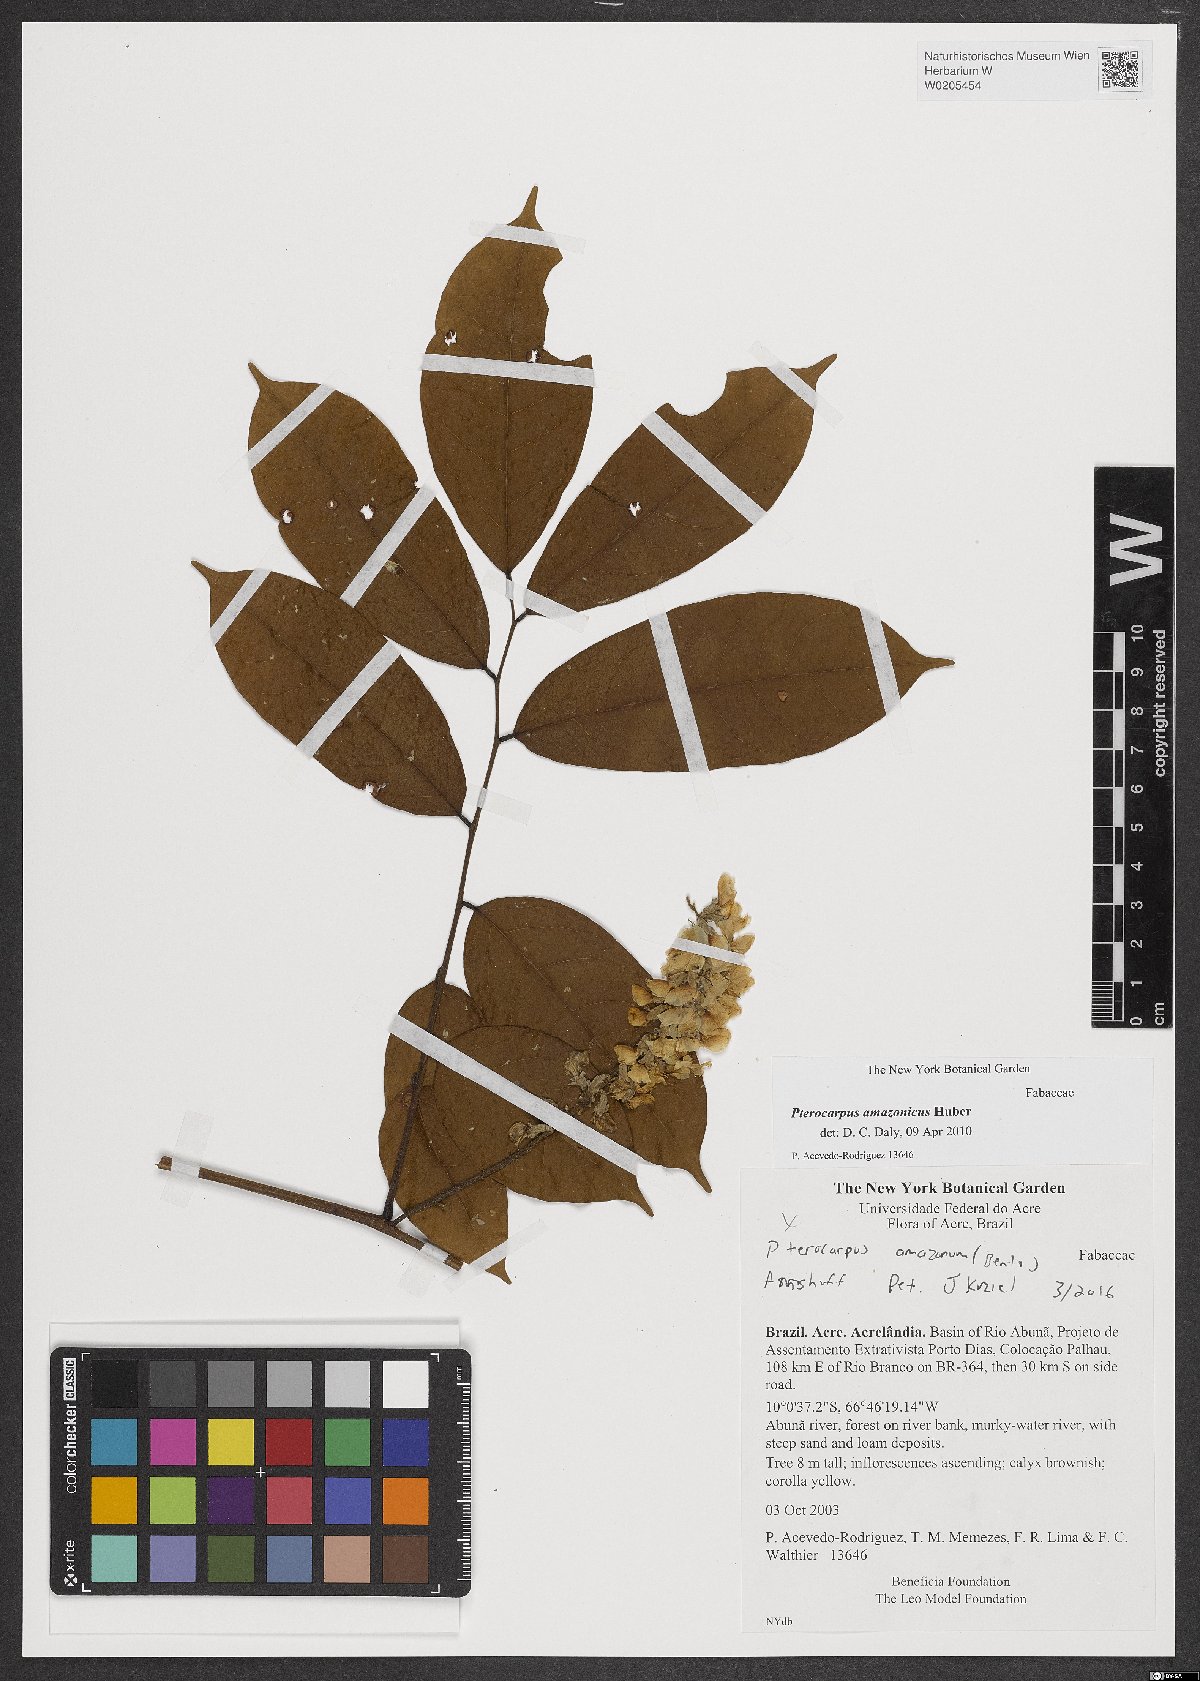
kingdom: Plantae
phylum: Tracheophyta
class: Magnoliopsida
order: Fabales
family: Fabaceae
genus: Pterocarpus
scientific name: Pterocarpus amazonum
